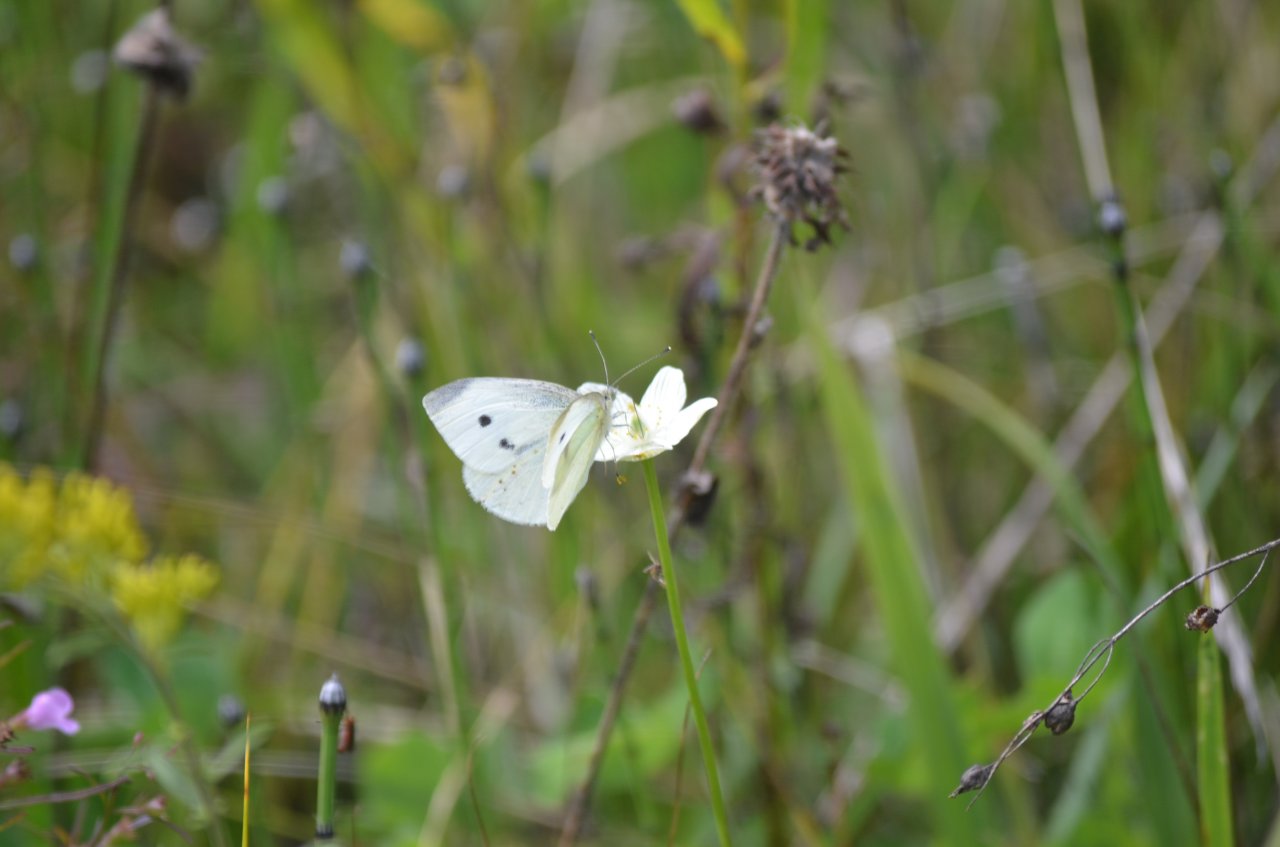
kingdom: Animalia
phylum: Arthropoda
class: Insecta
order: Lepidoptera
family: Pieridae
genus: Pieris
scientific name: Pieris rapae
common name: Cabbage White
